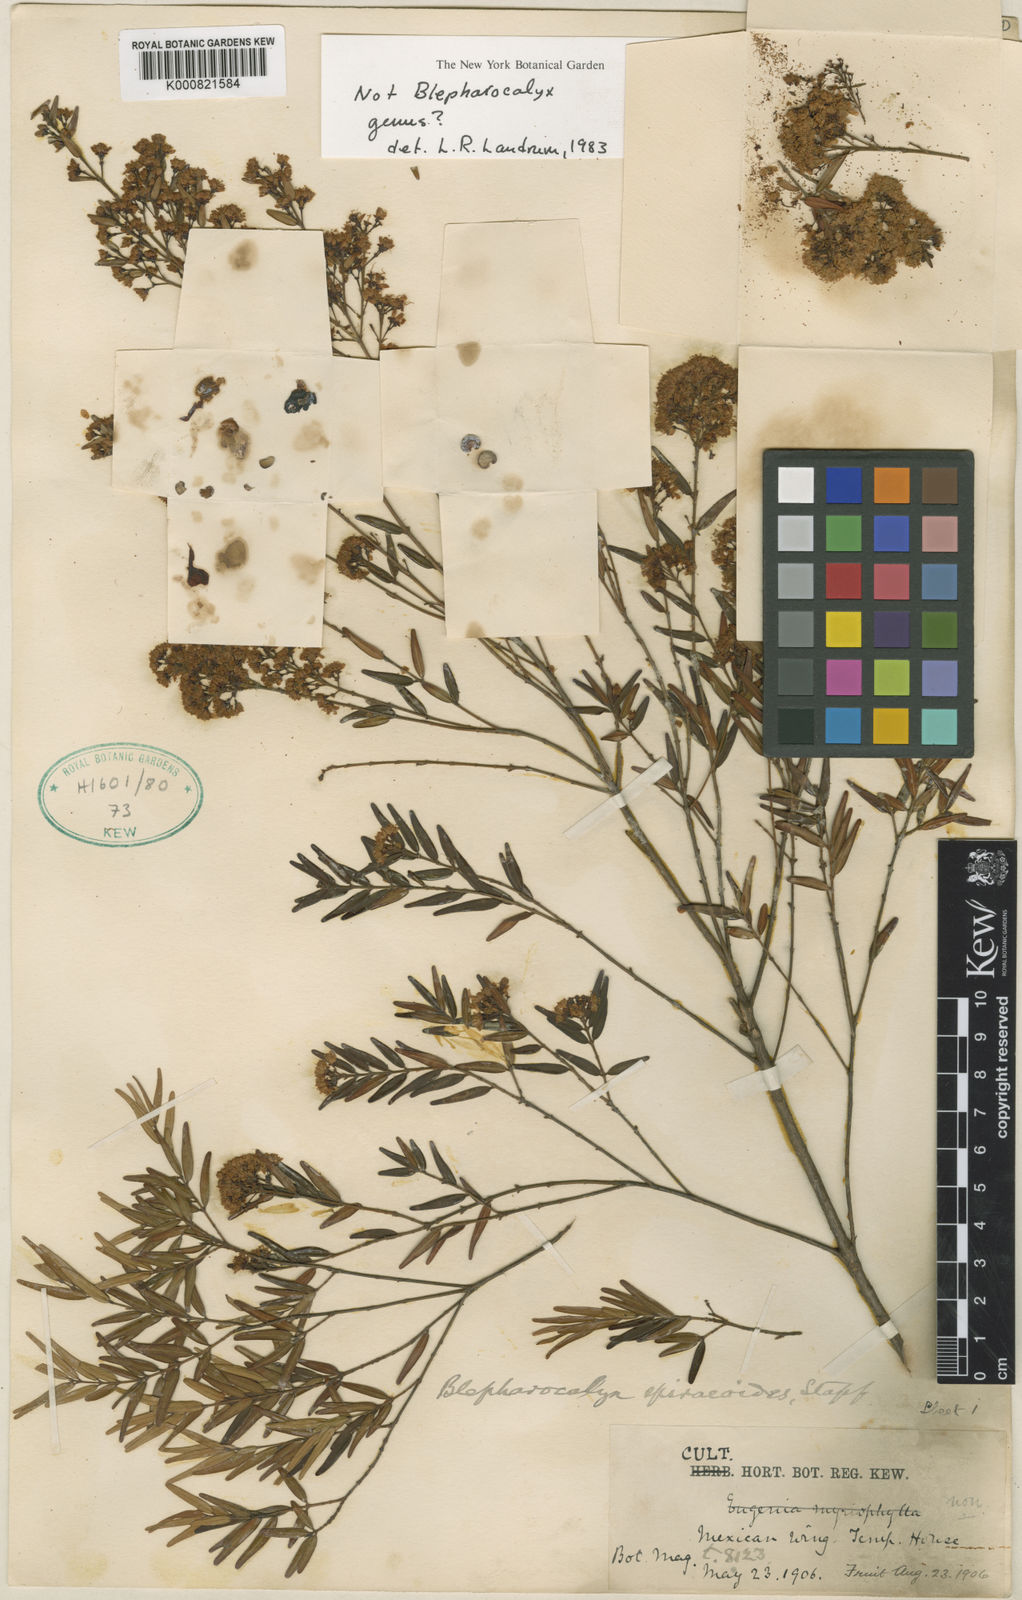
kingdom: Plantae
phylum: Tracheophyta
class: Magnoliopsida
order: Myrtales
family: Myrtaceae
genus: Eugenia
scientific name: Eugenia
